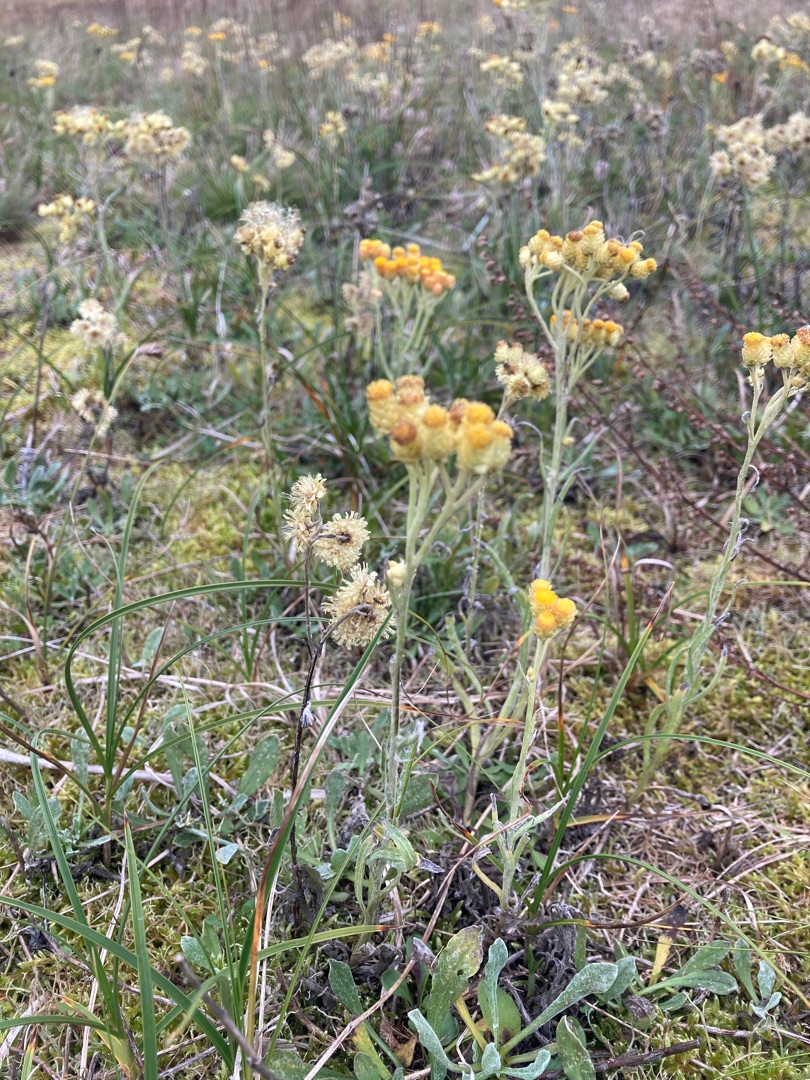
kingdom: Plantae
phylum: Tracheophyta
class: Magnoliopsida
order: Asterales
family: Asteraceae
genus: Helichrysum
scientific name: Helichrysum arenarium
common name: Gul evighedsblomst
